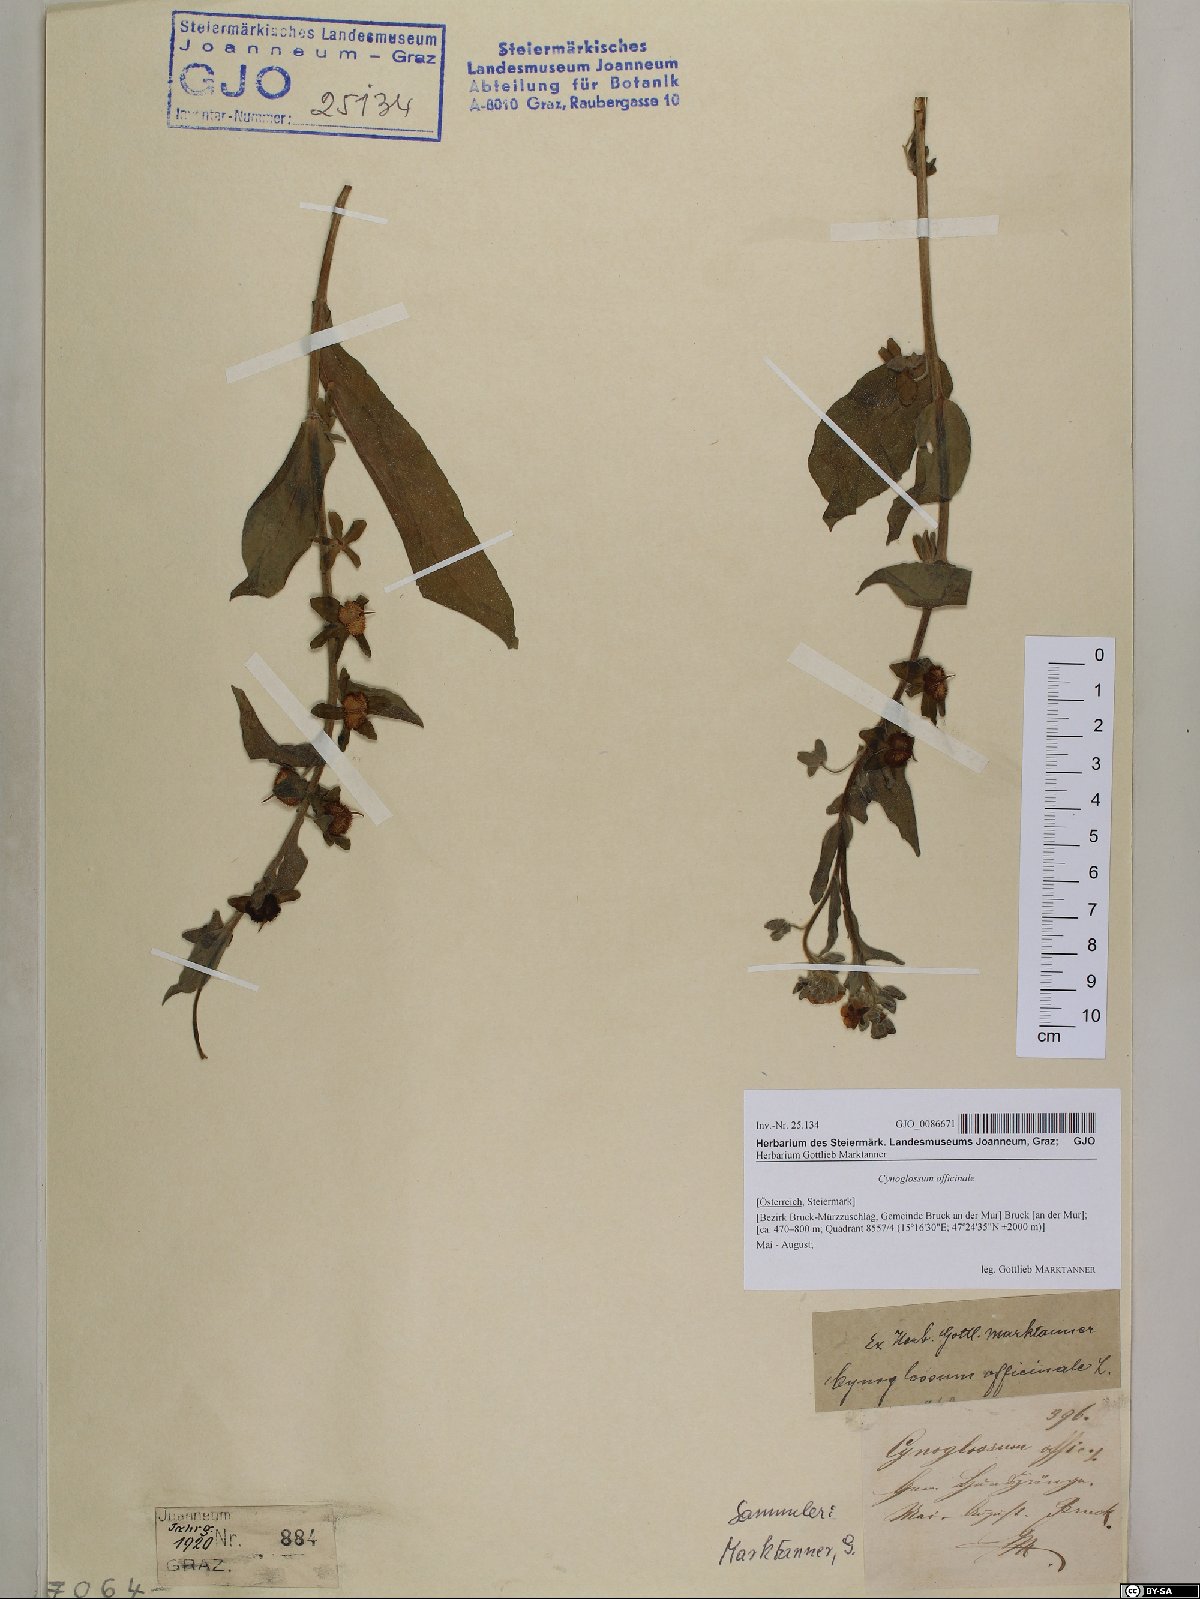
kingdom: Plantae
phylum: Tracheophyta
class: Magnoliopsida
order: Boraginales
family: Boraginaceae
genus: Cynoglossum
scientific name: Cynoglossum officinale
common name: Hound's-tongue
